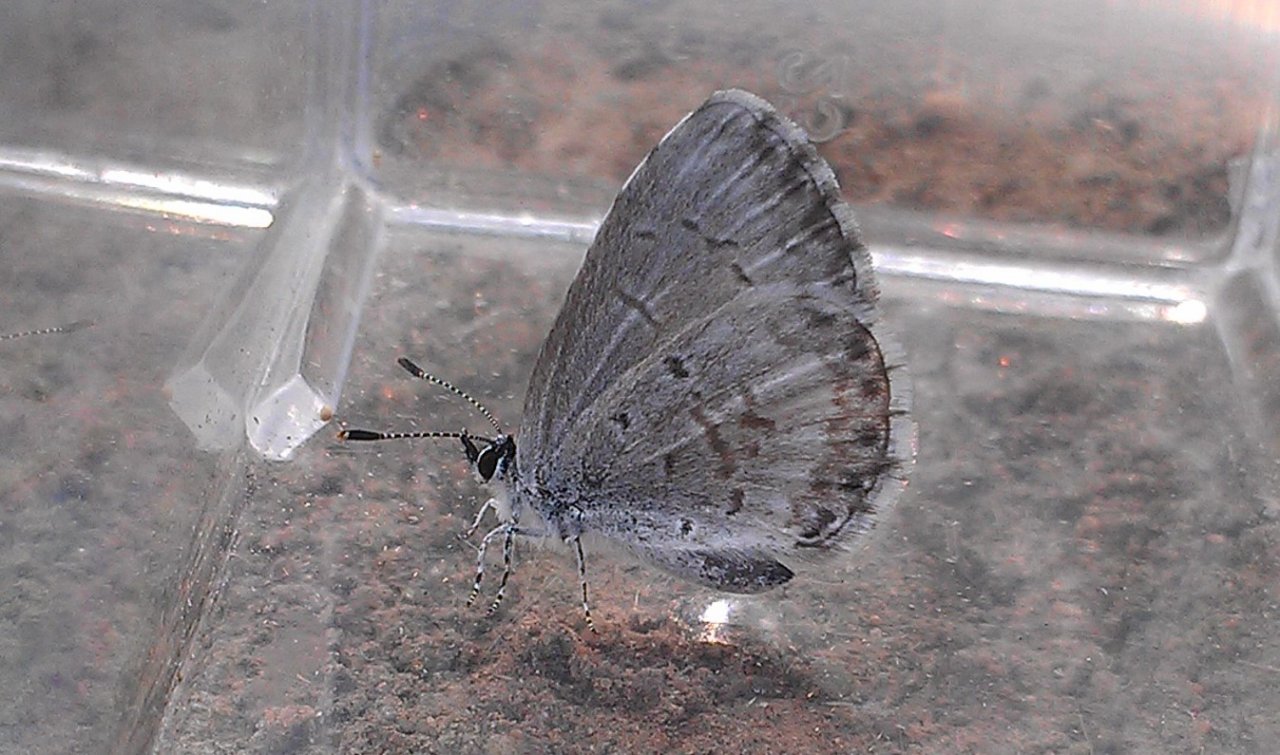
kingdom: Animalia
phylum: Arthropoda
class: Insecta
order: Lepidoptera
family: Lycaenidae
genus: Celastrina
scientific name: Celastrina
